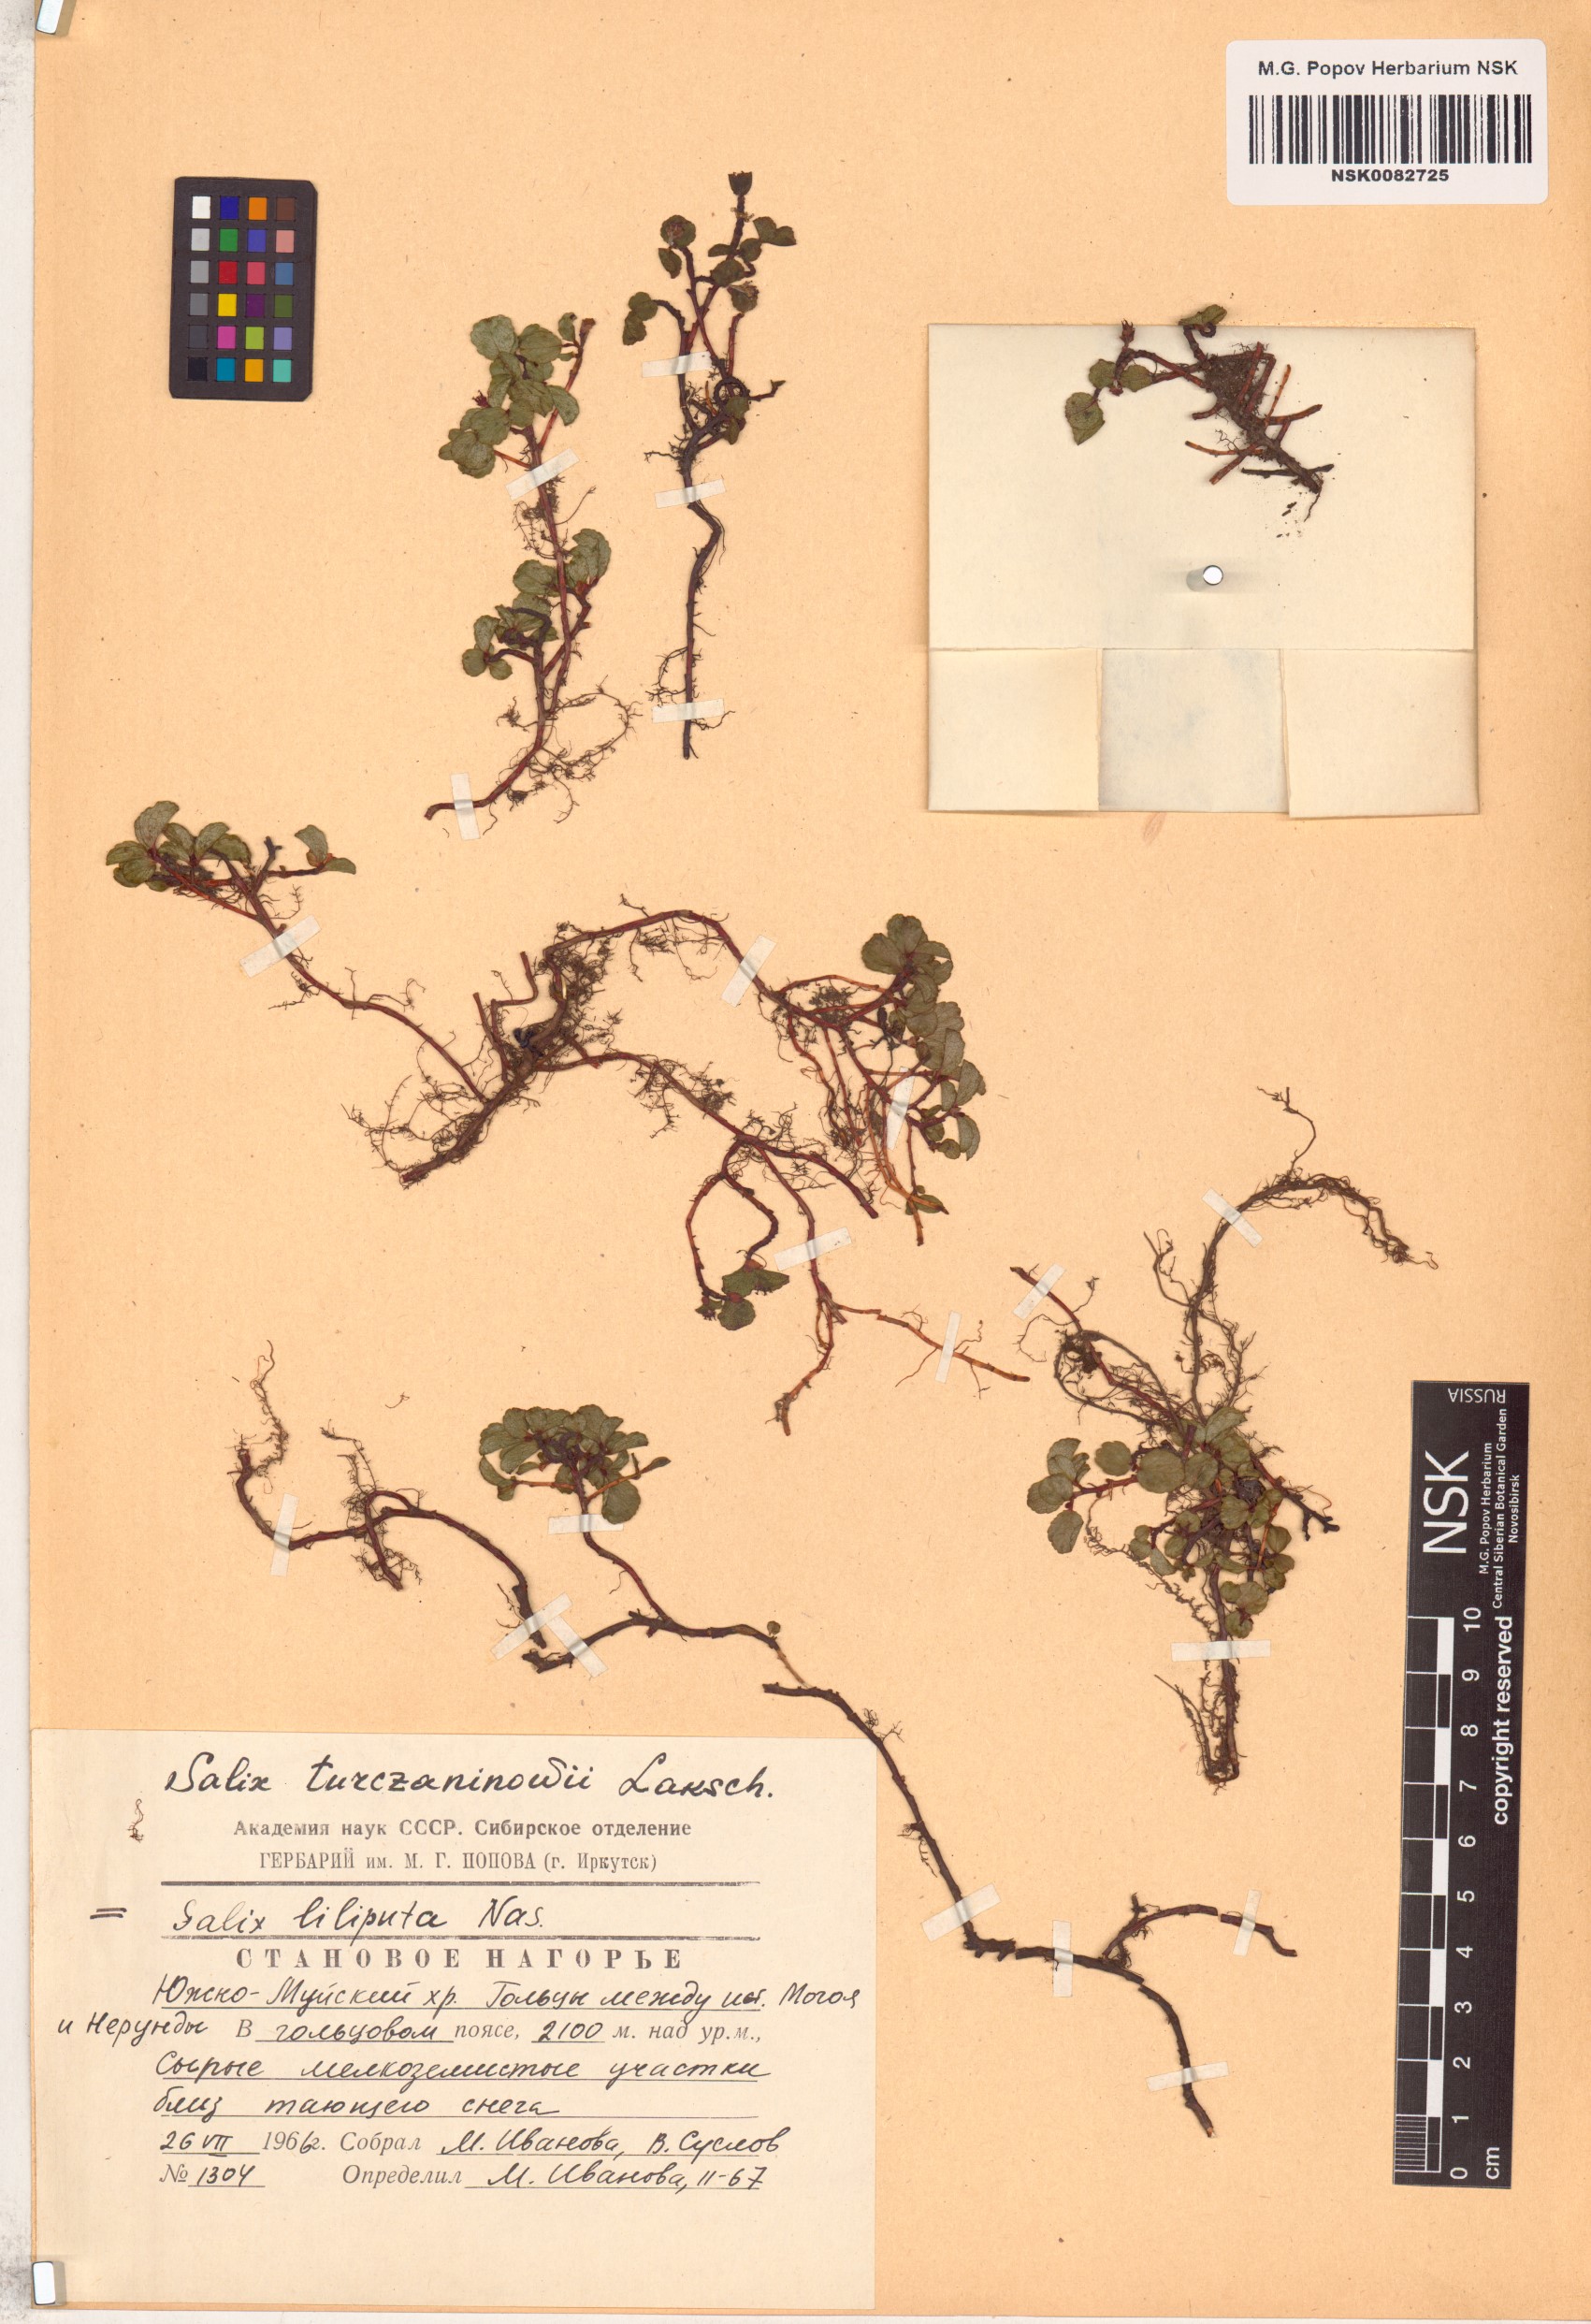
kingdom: Plantae
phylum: Tracheophyta
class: Magnoliopsida
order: Malpighiales
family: Salicaceae
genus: Salix
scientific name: Salix turczaninowii
